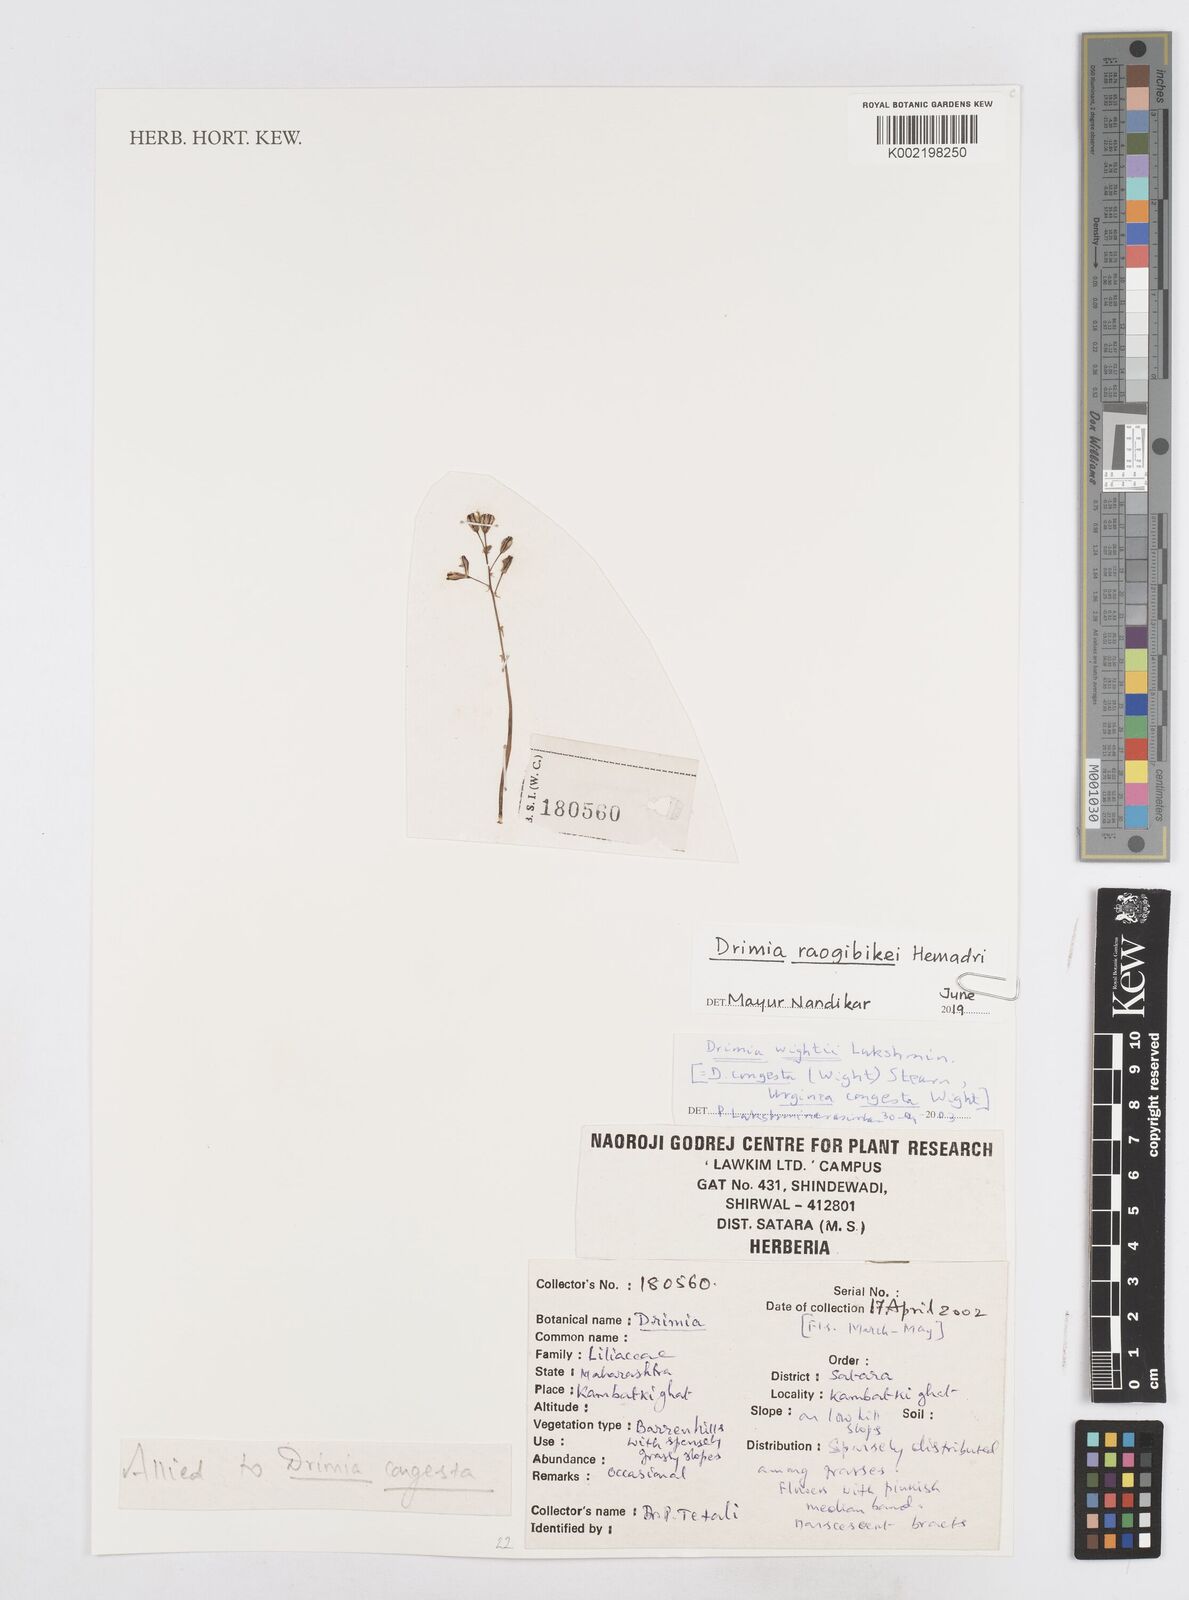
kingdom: Plantae
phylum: Tracheophyta
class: Liliopsida
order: Asparagales
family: Asparagaceae
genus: Drimia
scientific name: Drimia raogibikei
